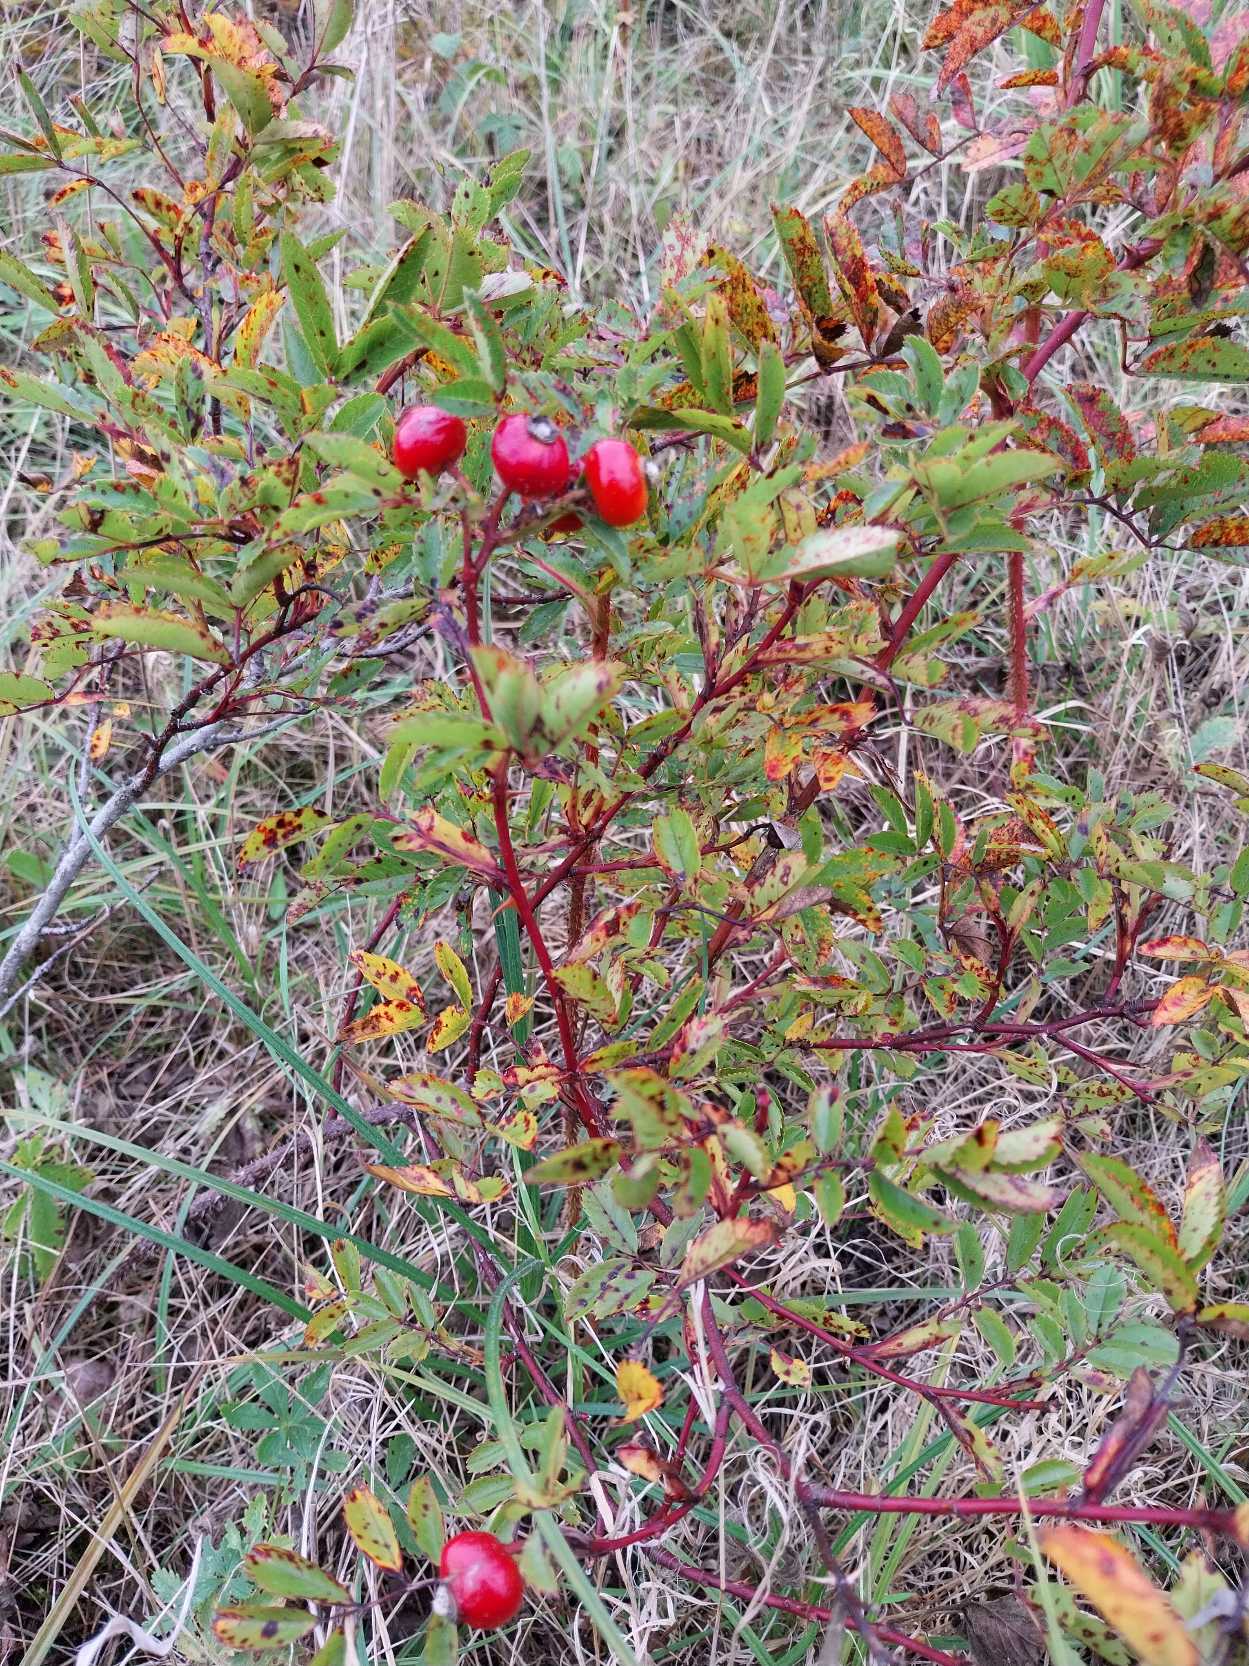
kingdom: Plantae
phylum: Tracheophyta
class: Magnoliopsida
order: Rosales
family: Rosaceae
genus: Rosa
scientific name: Rosa carolina
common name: Glansbladet rose
